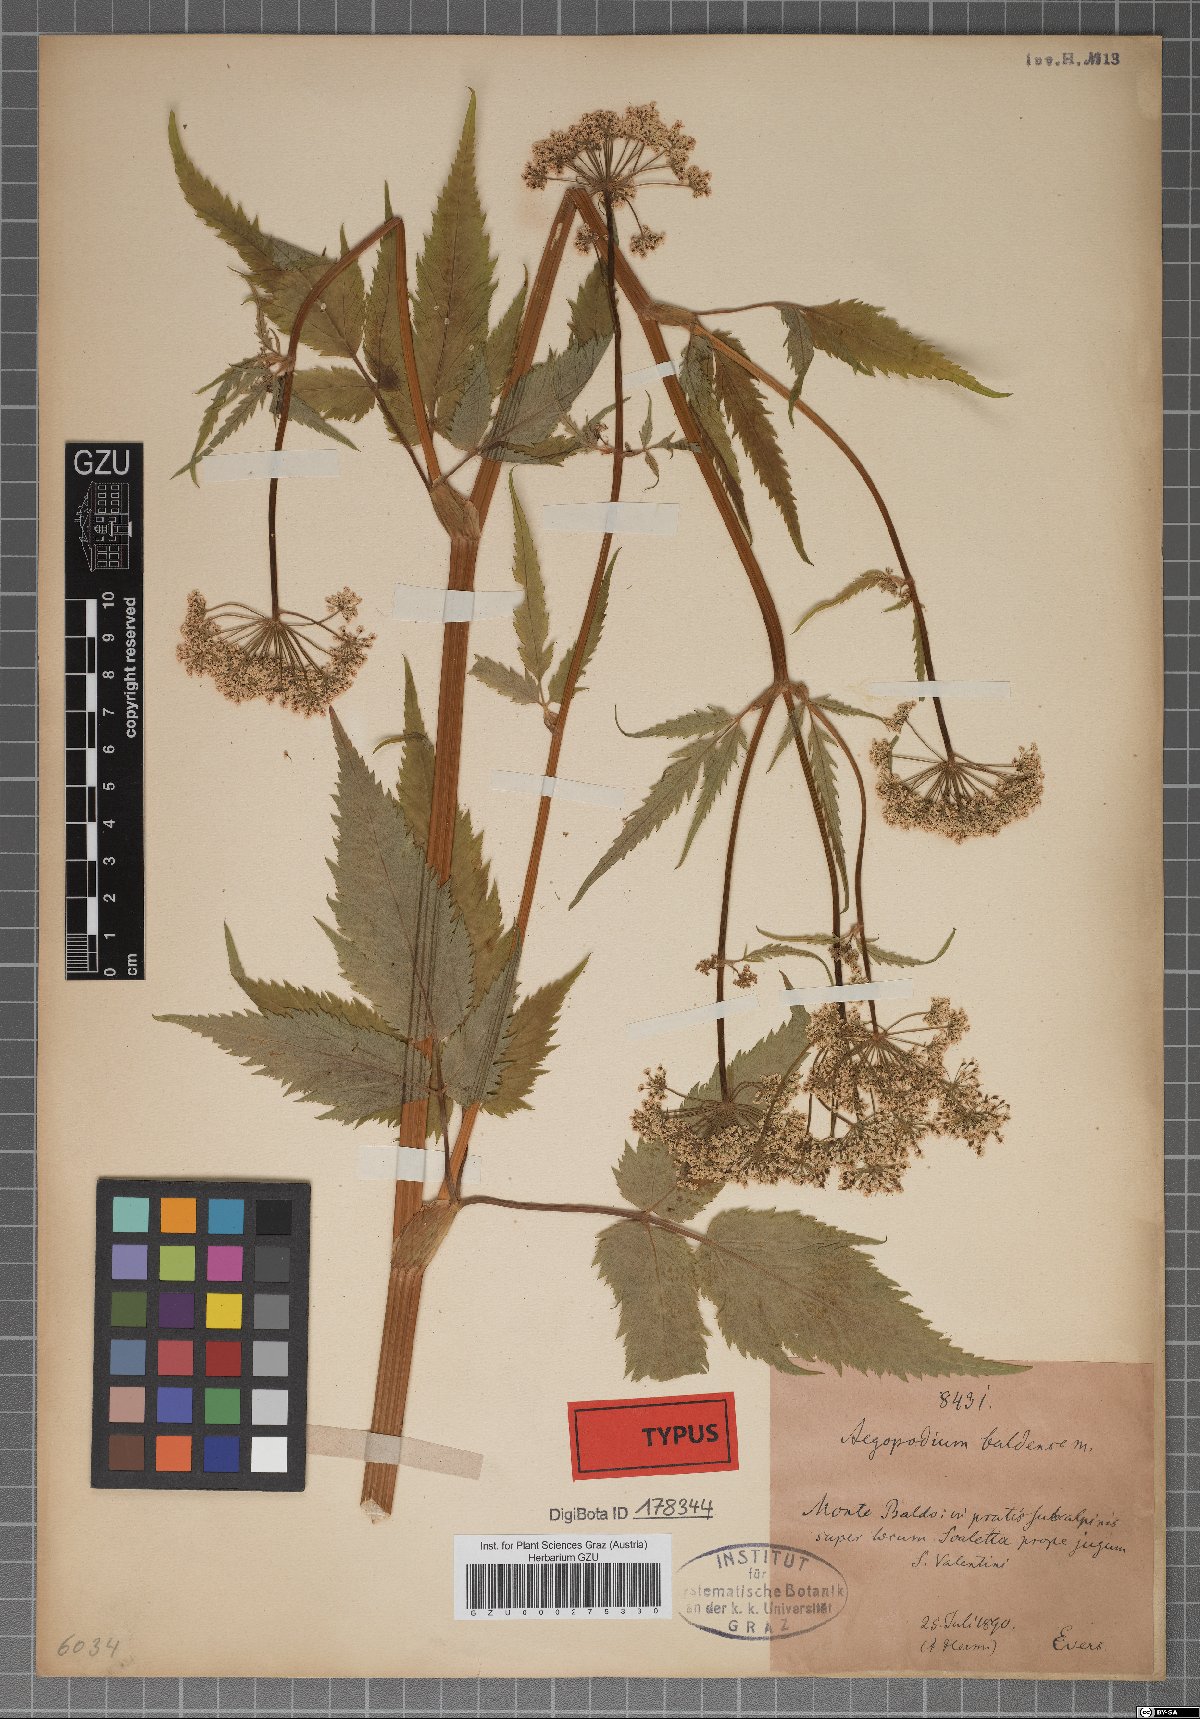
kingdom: Plantae
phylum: Tracheophyta
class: Magnoliopsida
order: Apiales
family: Apiaceae
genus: Aegopodium
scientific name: Aegopodium podagraria
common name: Ground-elder
